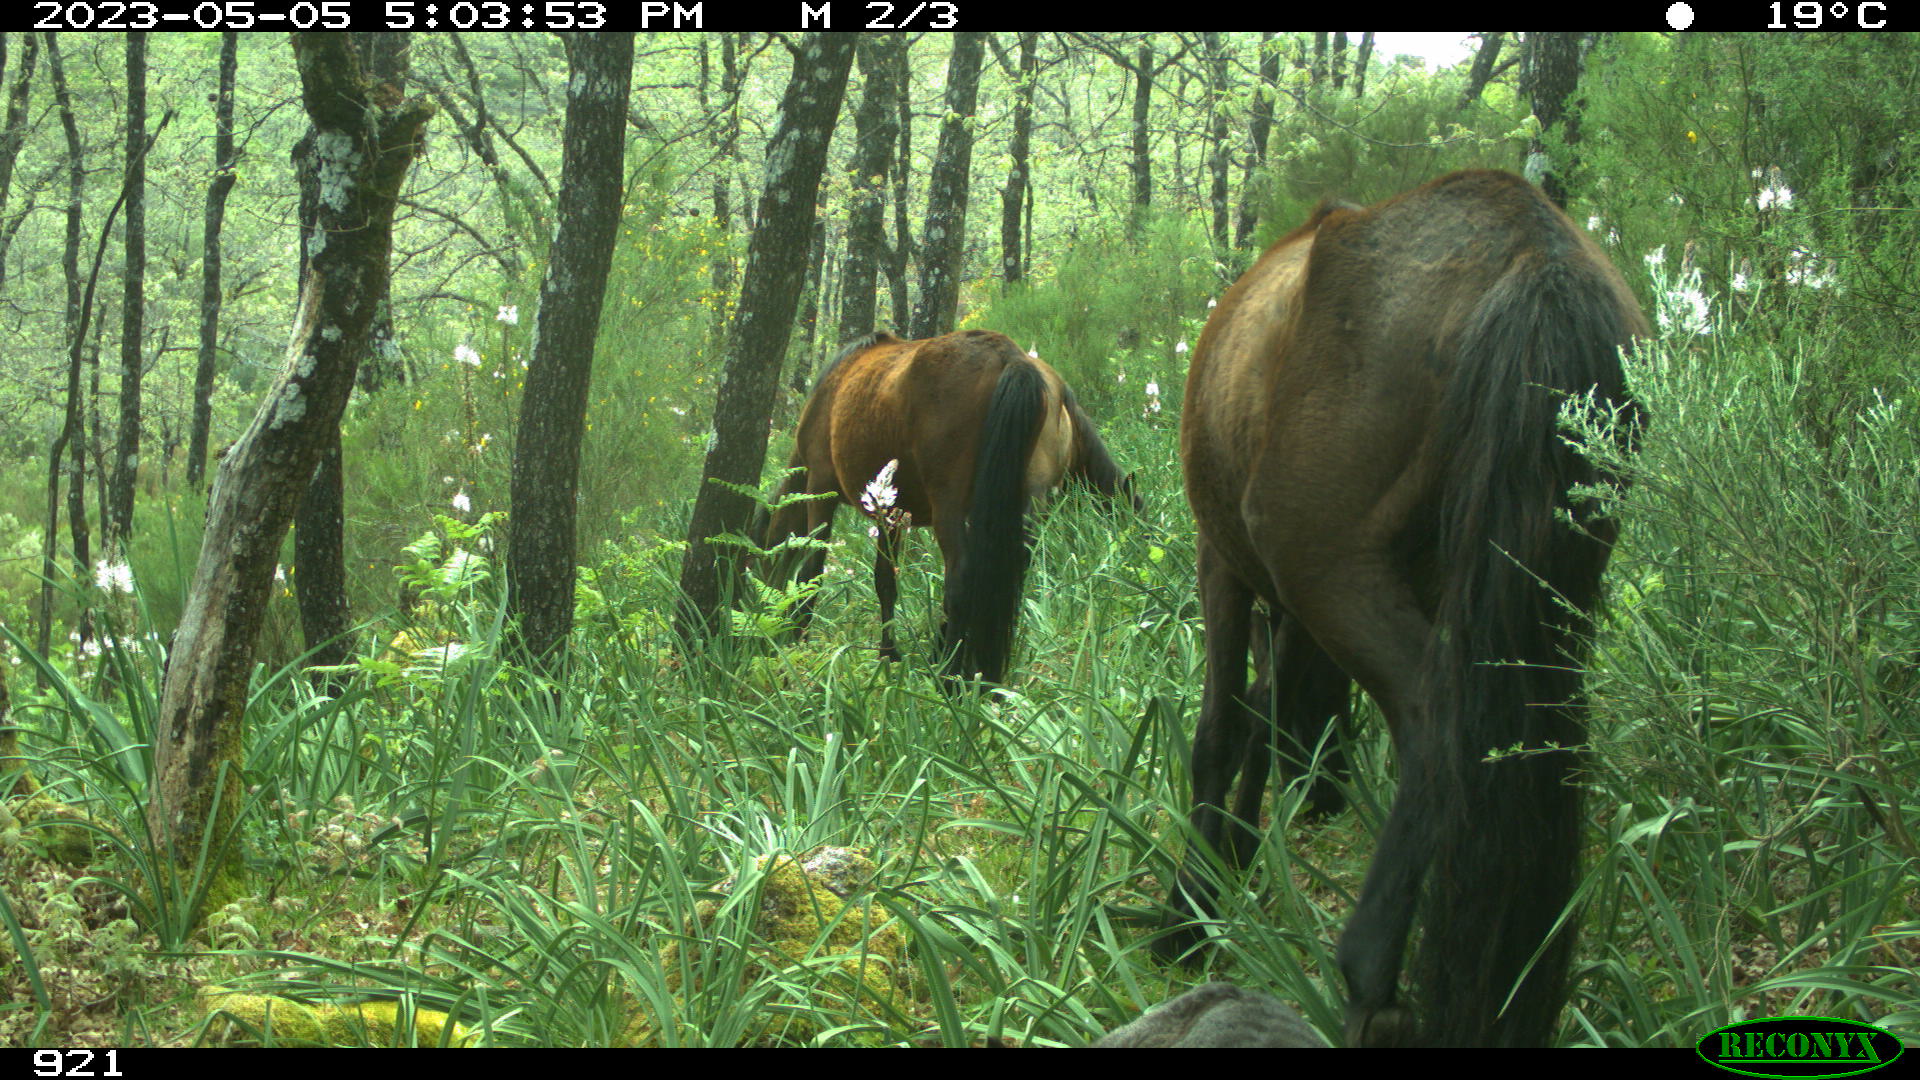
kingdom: Animalia
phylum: Chordata
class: Mammalia
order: Perissodactyla
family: Equidae
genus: Equus
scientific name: Equus caballus
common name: Horse
